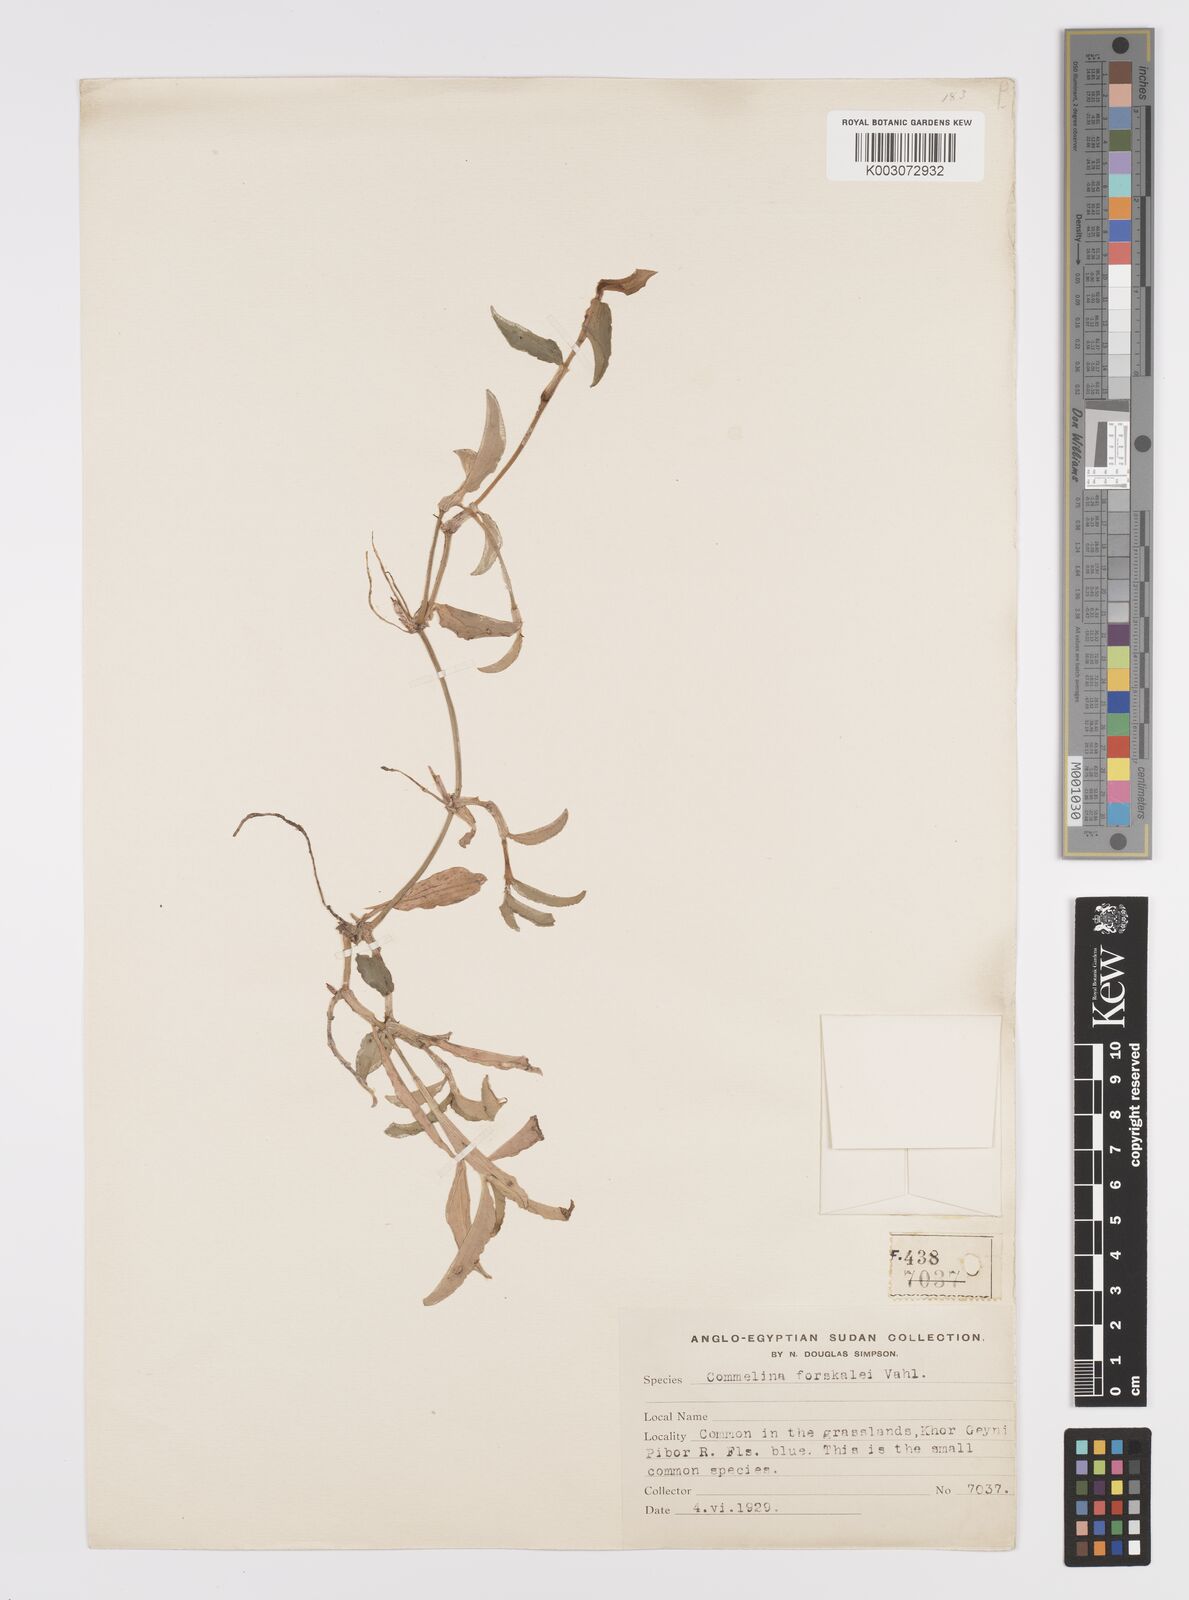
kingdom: Plantae
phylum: Tracheophyta
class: Liliopsida
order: Commelinales
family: Commelinaceae
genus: Commelina
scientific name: Commelina forskaolii
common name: Rat's ear
